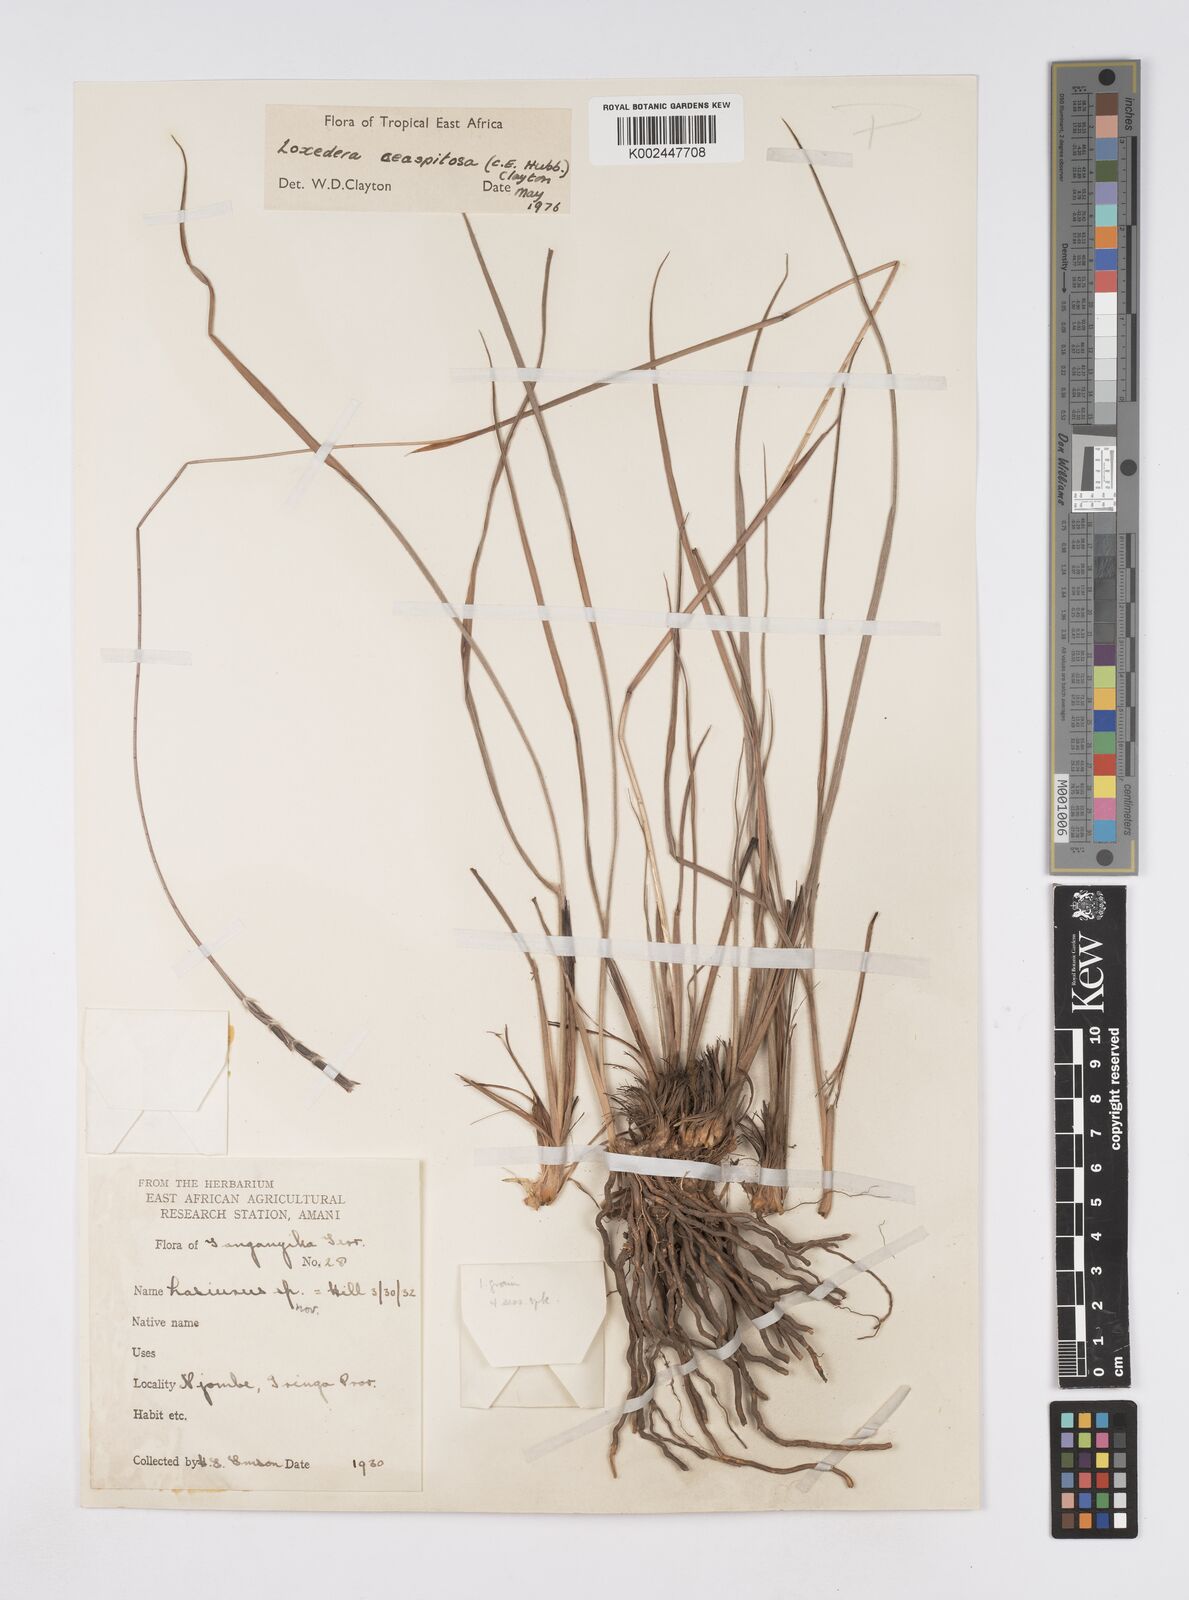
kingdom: Plantae
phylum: Tracheophyta
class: Liliopsida
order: Poales
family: Poaceae
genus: Loxodera
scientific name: Loxodera caespitosa
